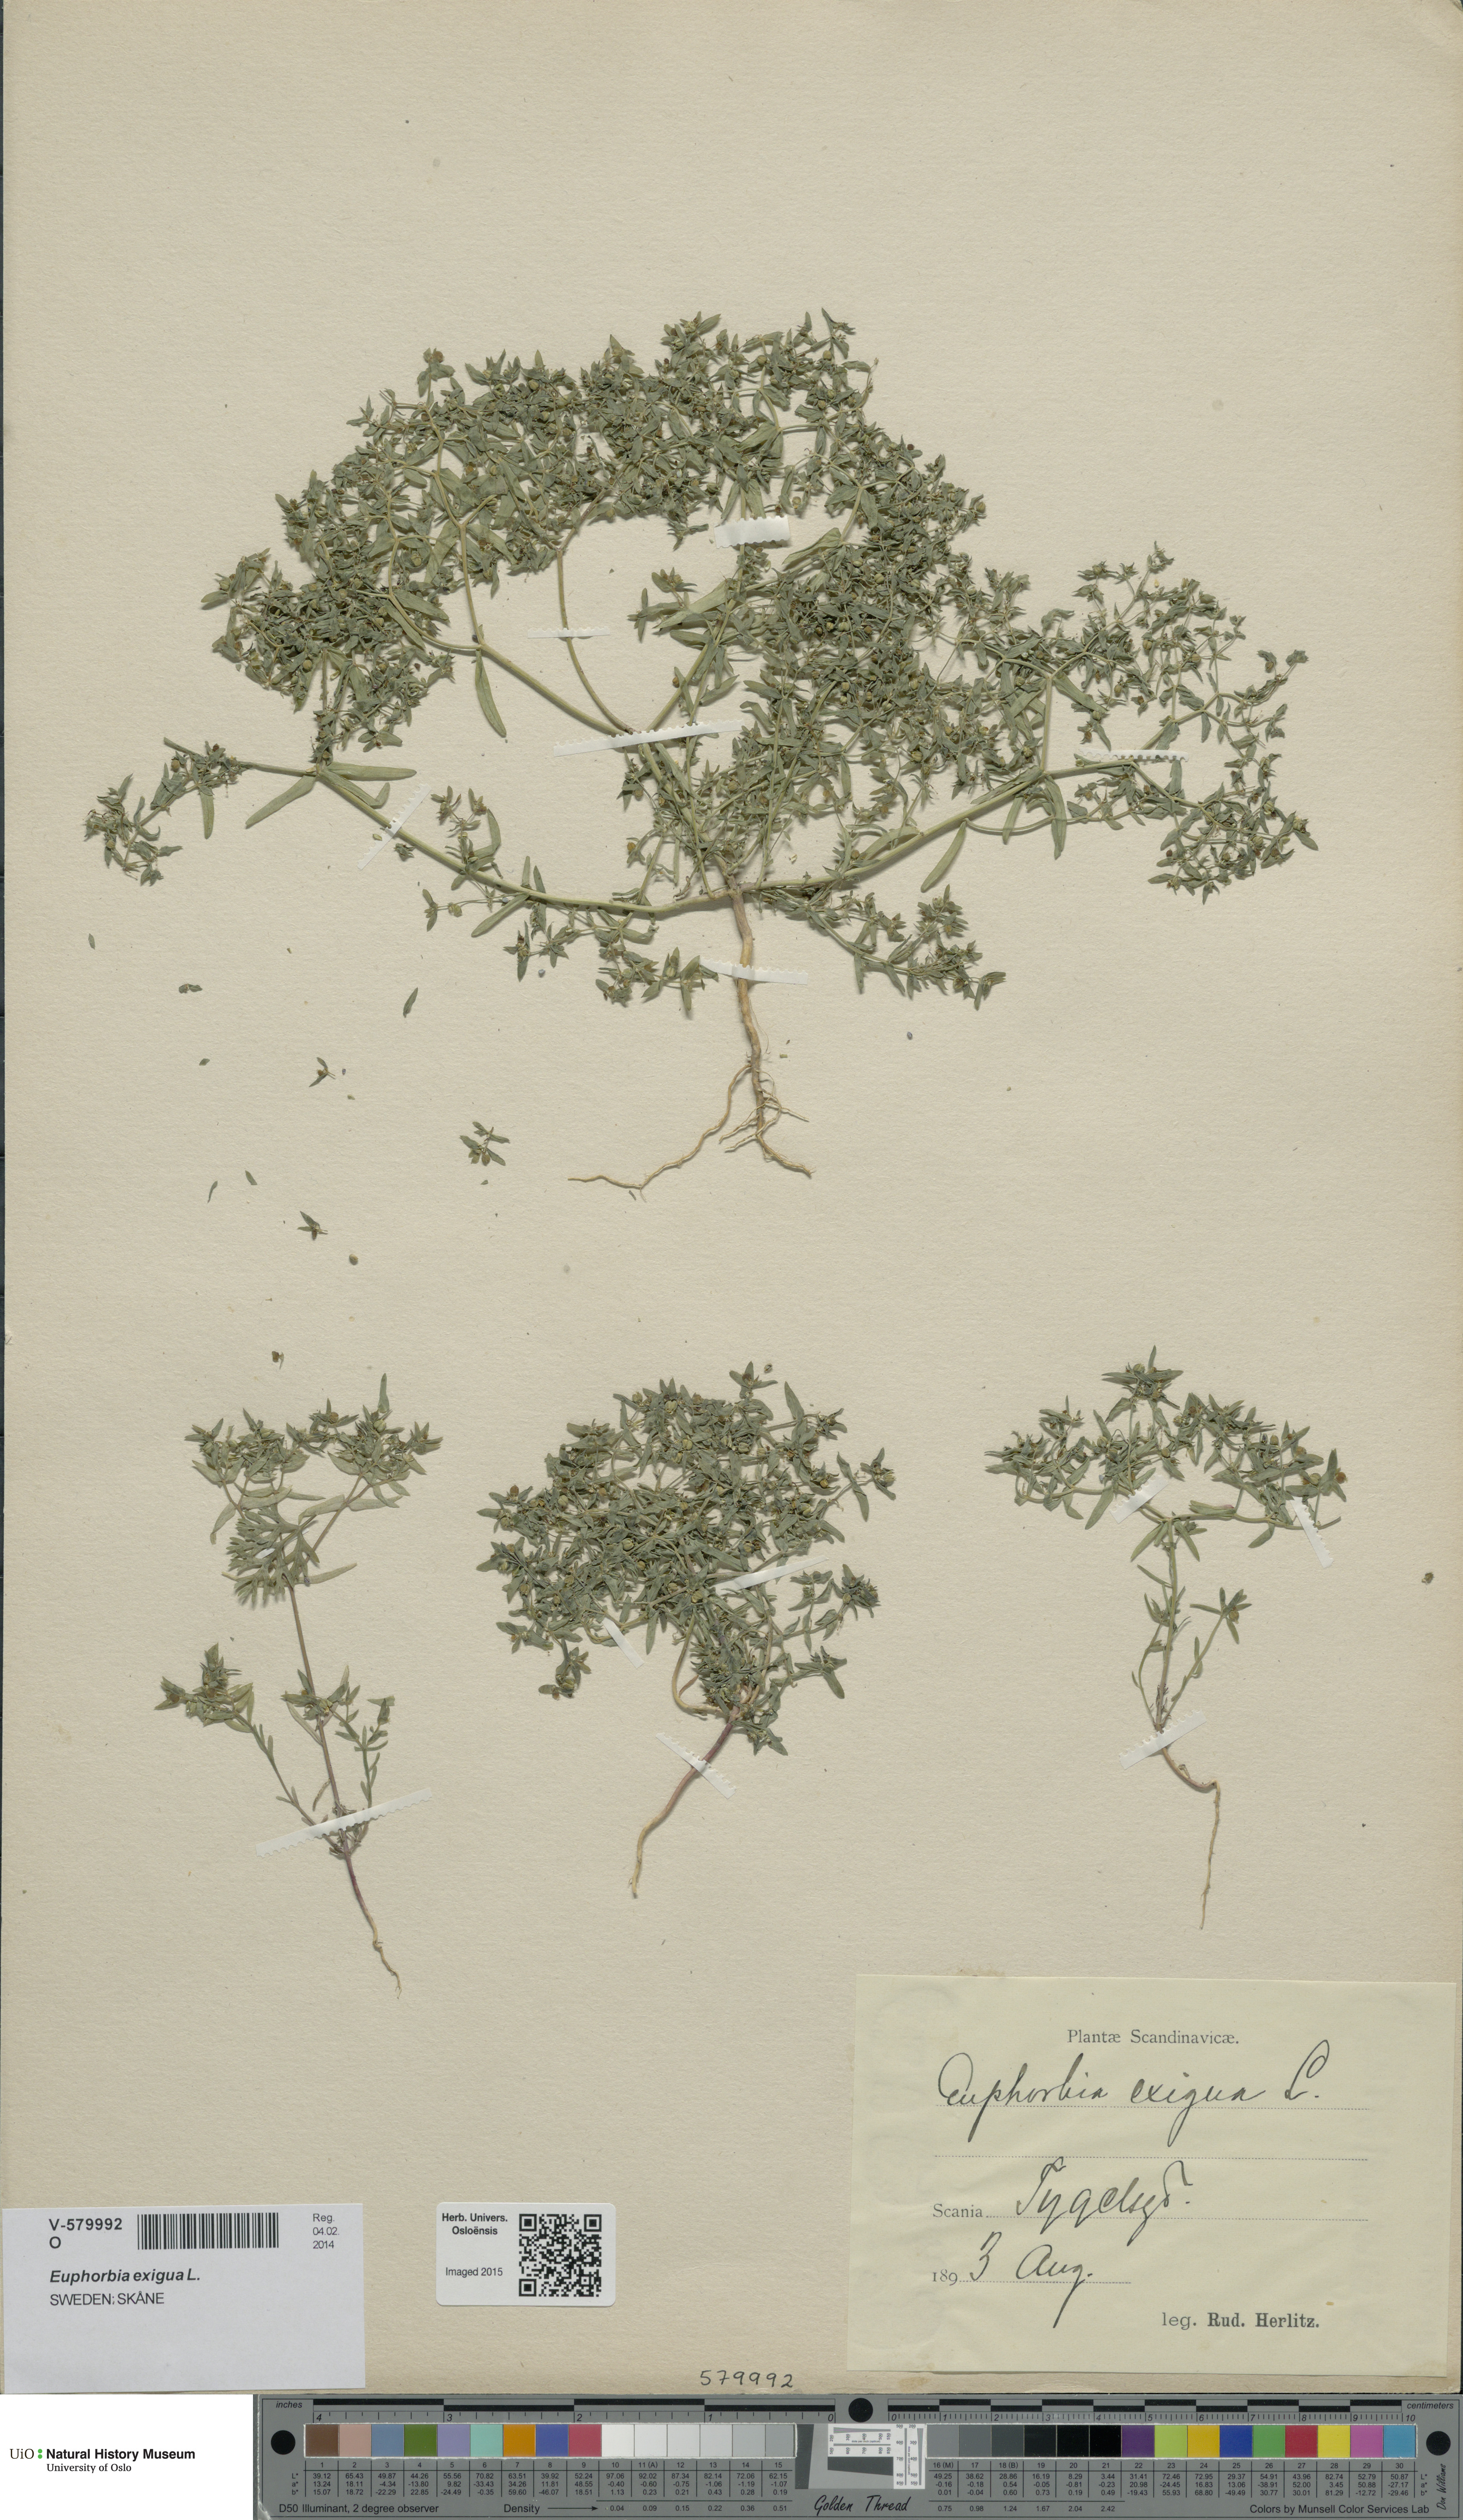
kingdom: Plantae
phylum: Tracheophyta
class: Magnoliopsida
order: Malpighiales
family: Euphorbiaceae
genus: Euphorbia
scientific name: Euphorbia exigua
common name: Dwarf spurge
